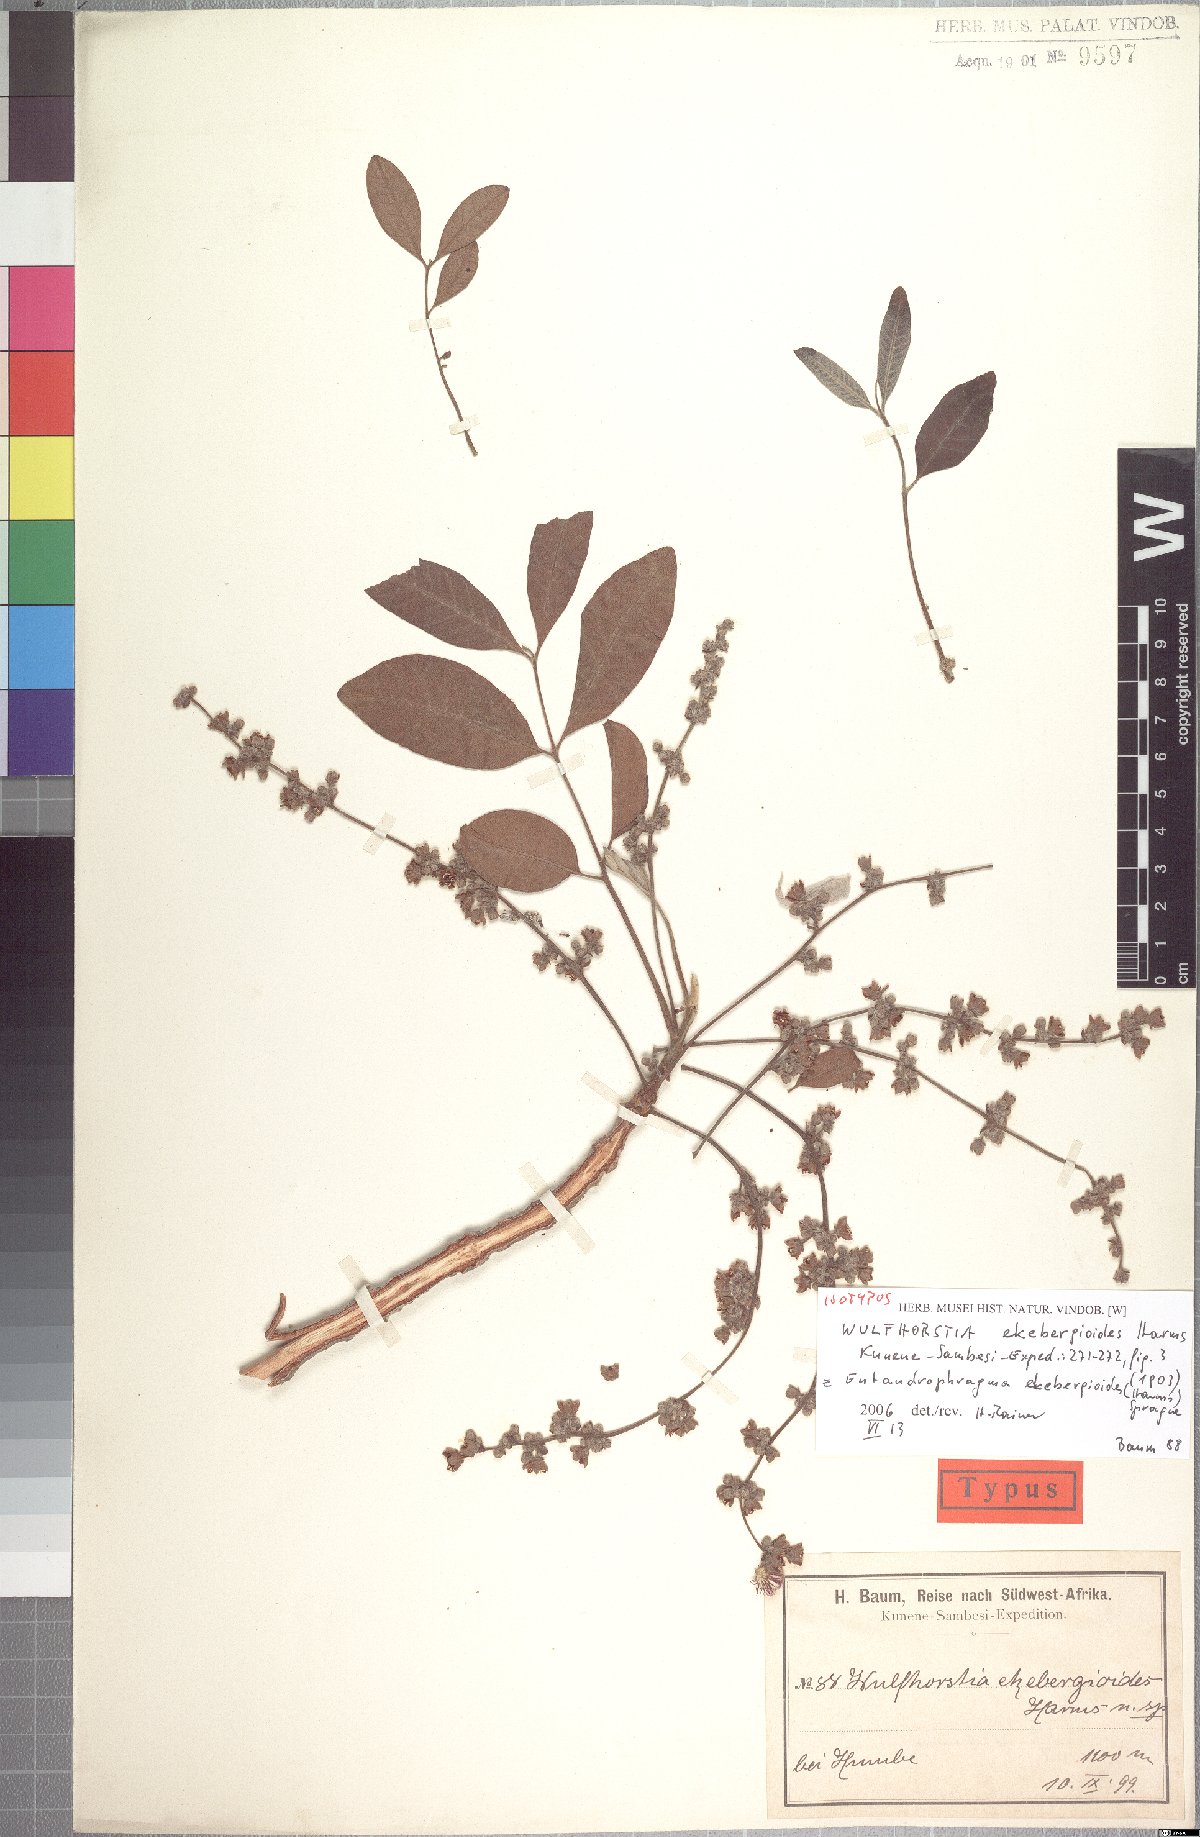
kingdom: Plantae
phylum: Tracheophyta
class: Magnoliopsida
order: Sapindales
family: Meliaceae
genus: Entandrophragma
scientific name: Entandrophragma spicatum
